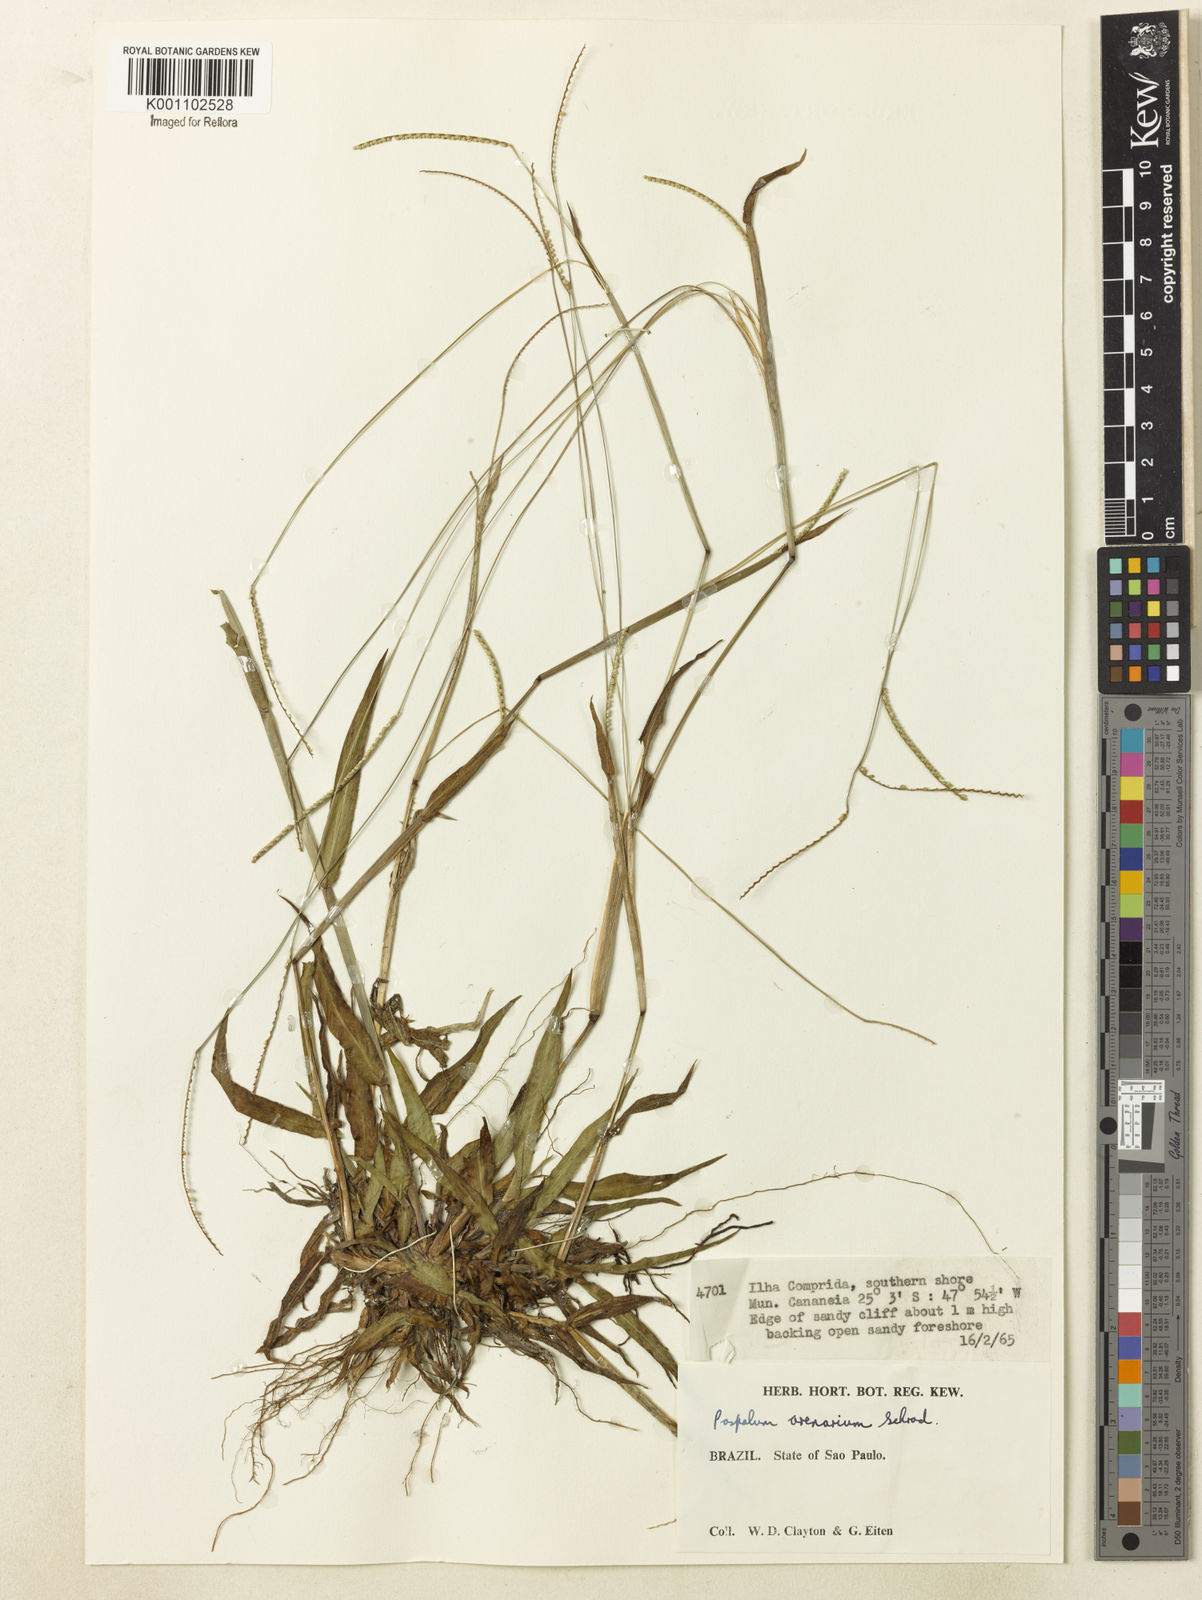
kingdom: Plantae
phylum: Tracheophyta
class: Liliopsida
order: Poales
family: Poaceae
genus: Paspalum
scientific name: Paspalum arenarium
